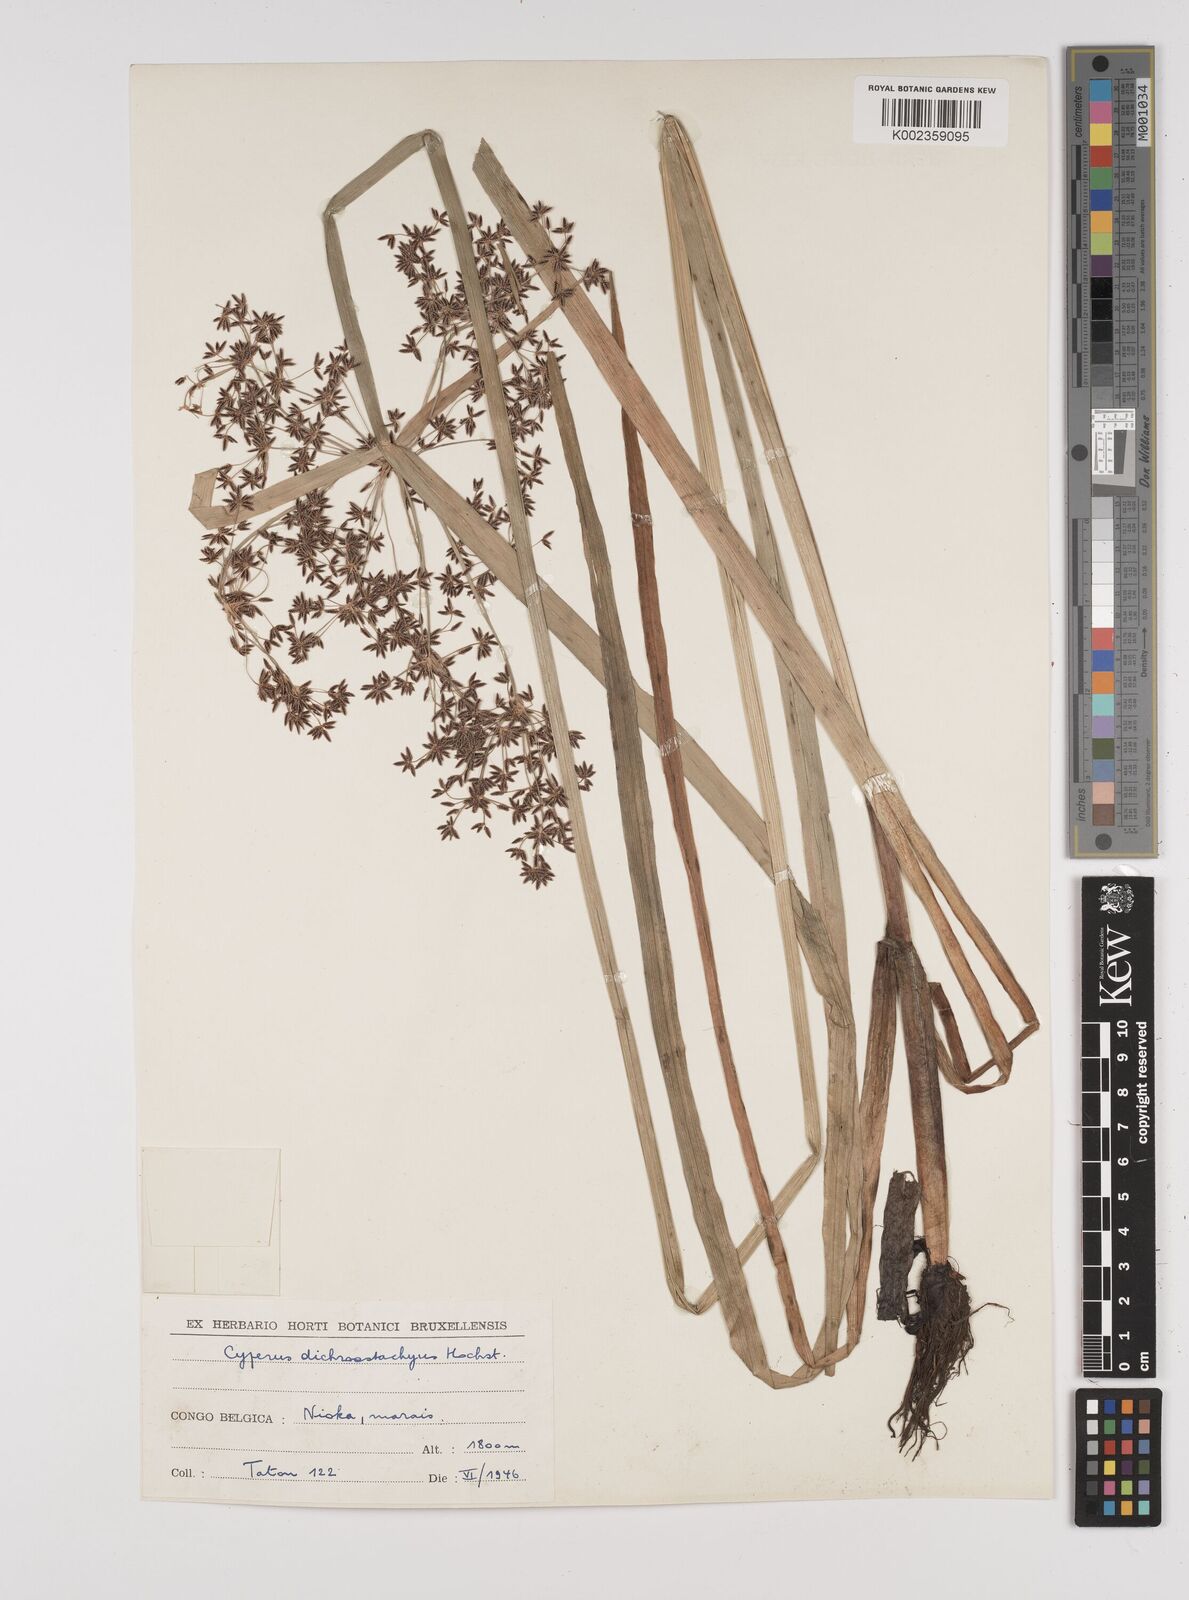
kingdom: Plantae
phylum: Tracheophyta
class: Liliopsida
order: Poales
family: Cyperaceae
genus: Cyperus
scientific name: Cyperus dichrostachyus
